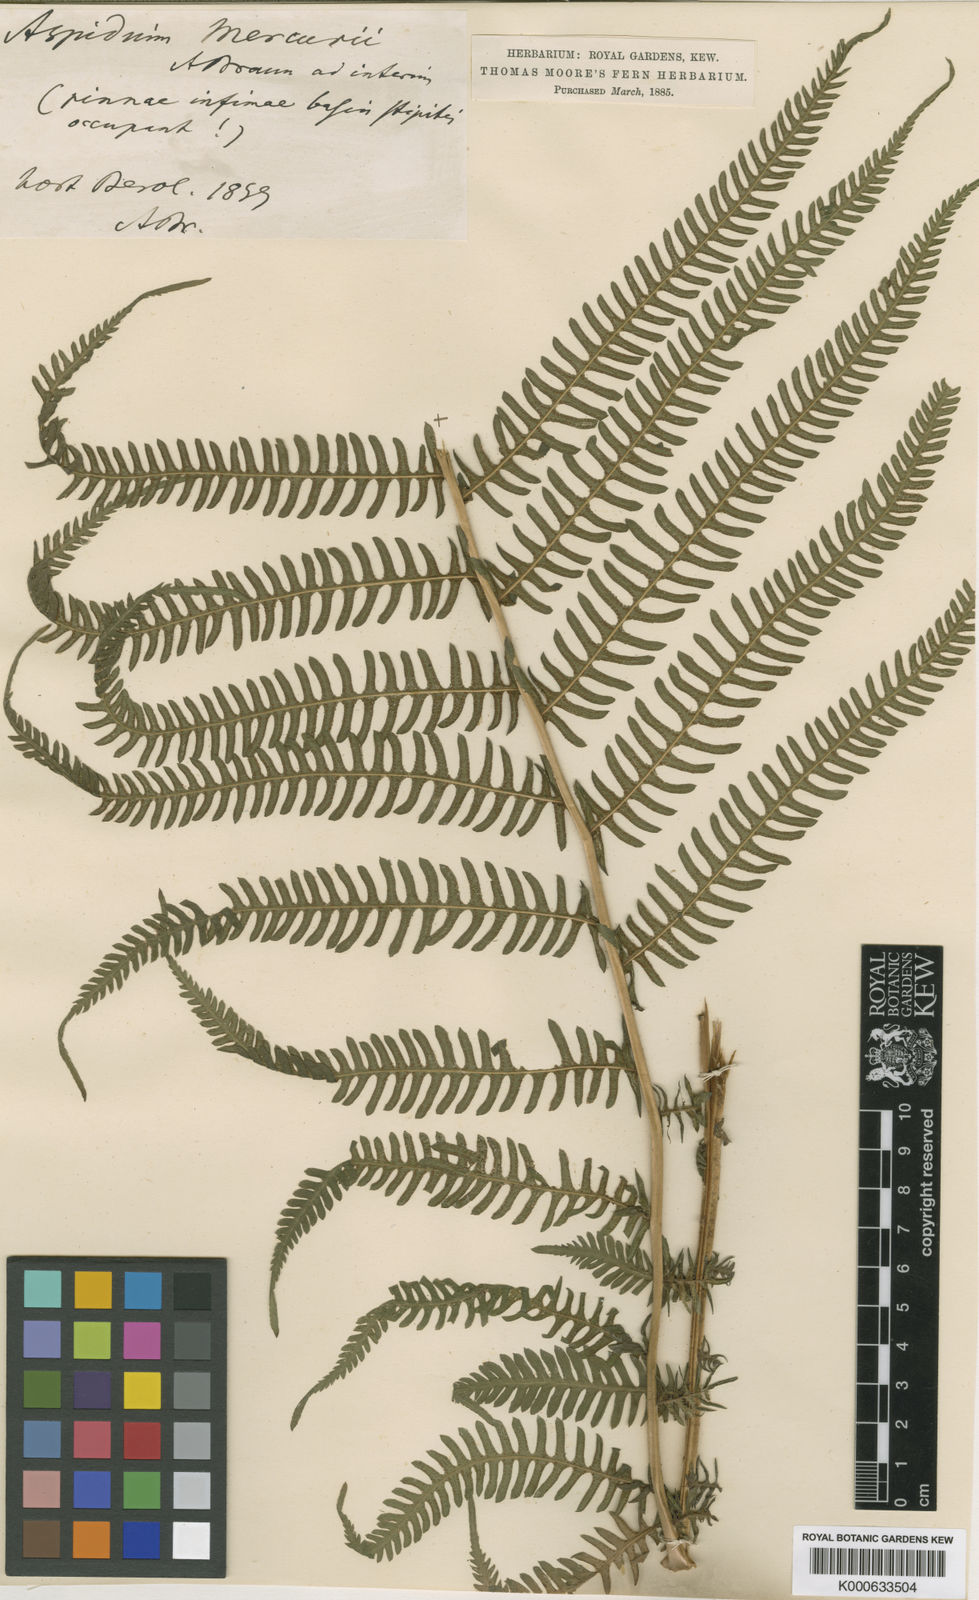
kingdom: Plantae
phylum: Tracheophyta
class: Polypodiopsida
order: Polypodiales
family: Thelypteridaceae
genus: Amauropelta
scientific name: Amauropelta
